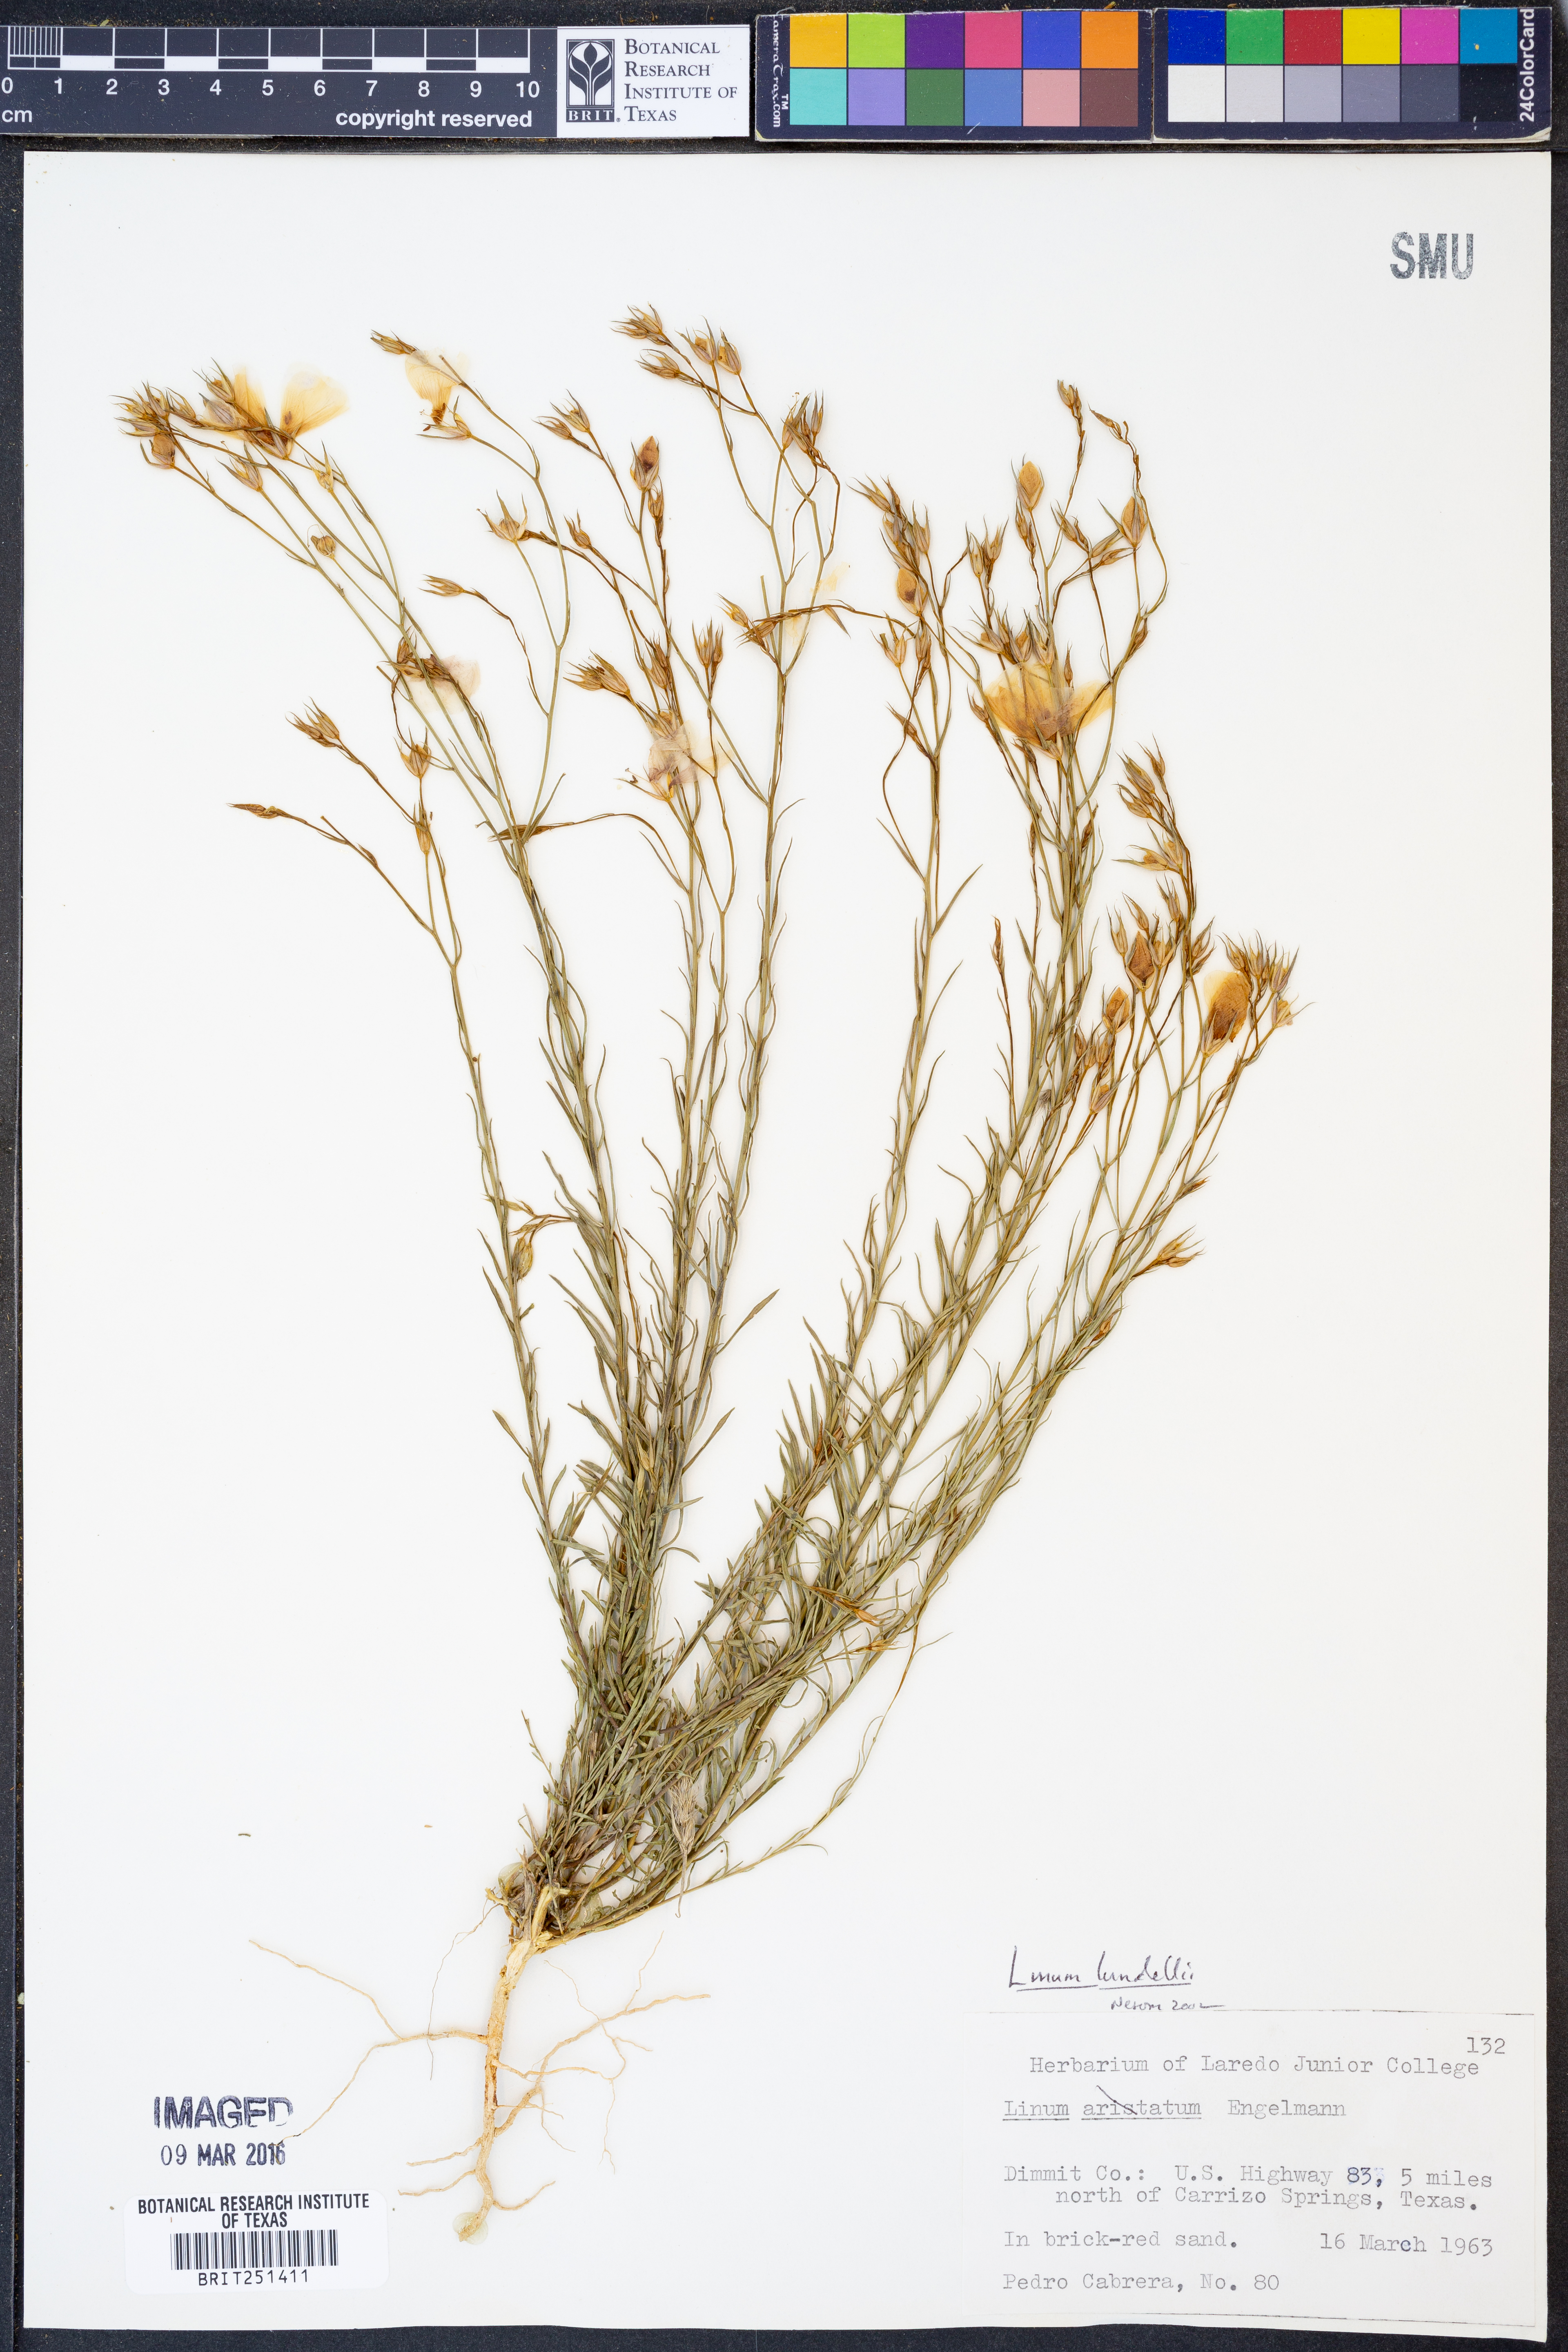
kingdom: Plantae
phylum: Tracheophyta
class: Magnoliopsida
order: Malpighiales
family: Linaceae
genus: Linum
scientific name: Linum lundellii
